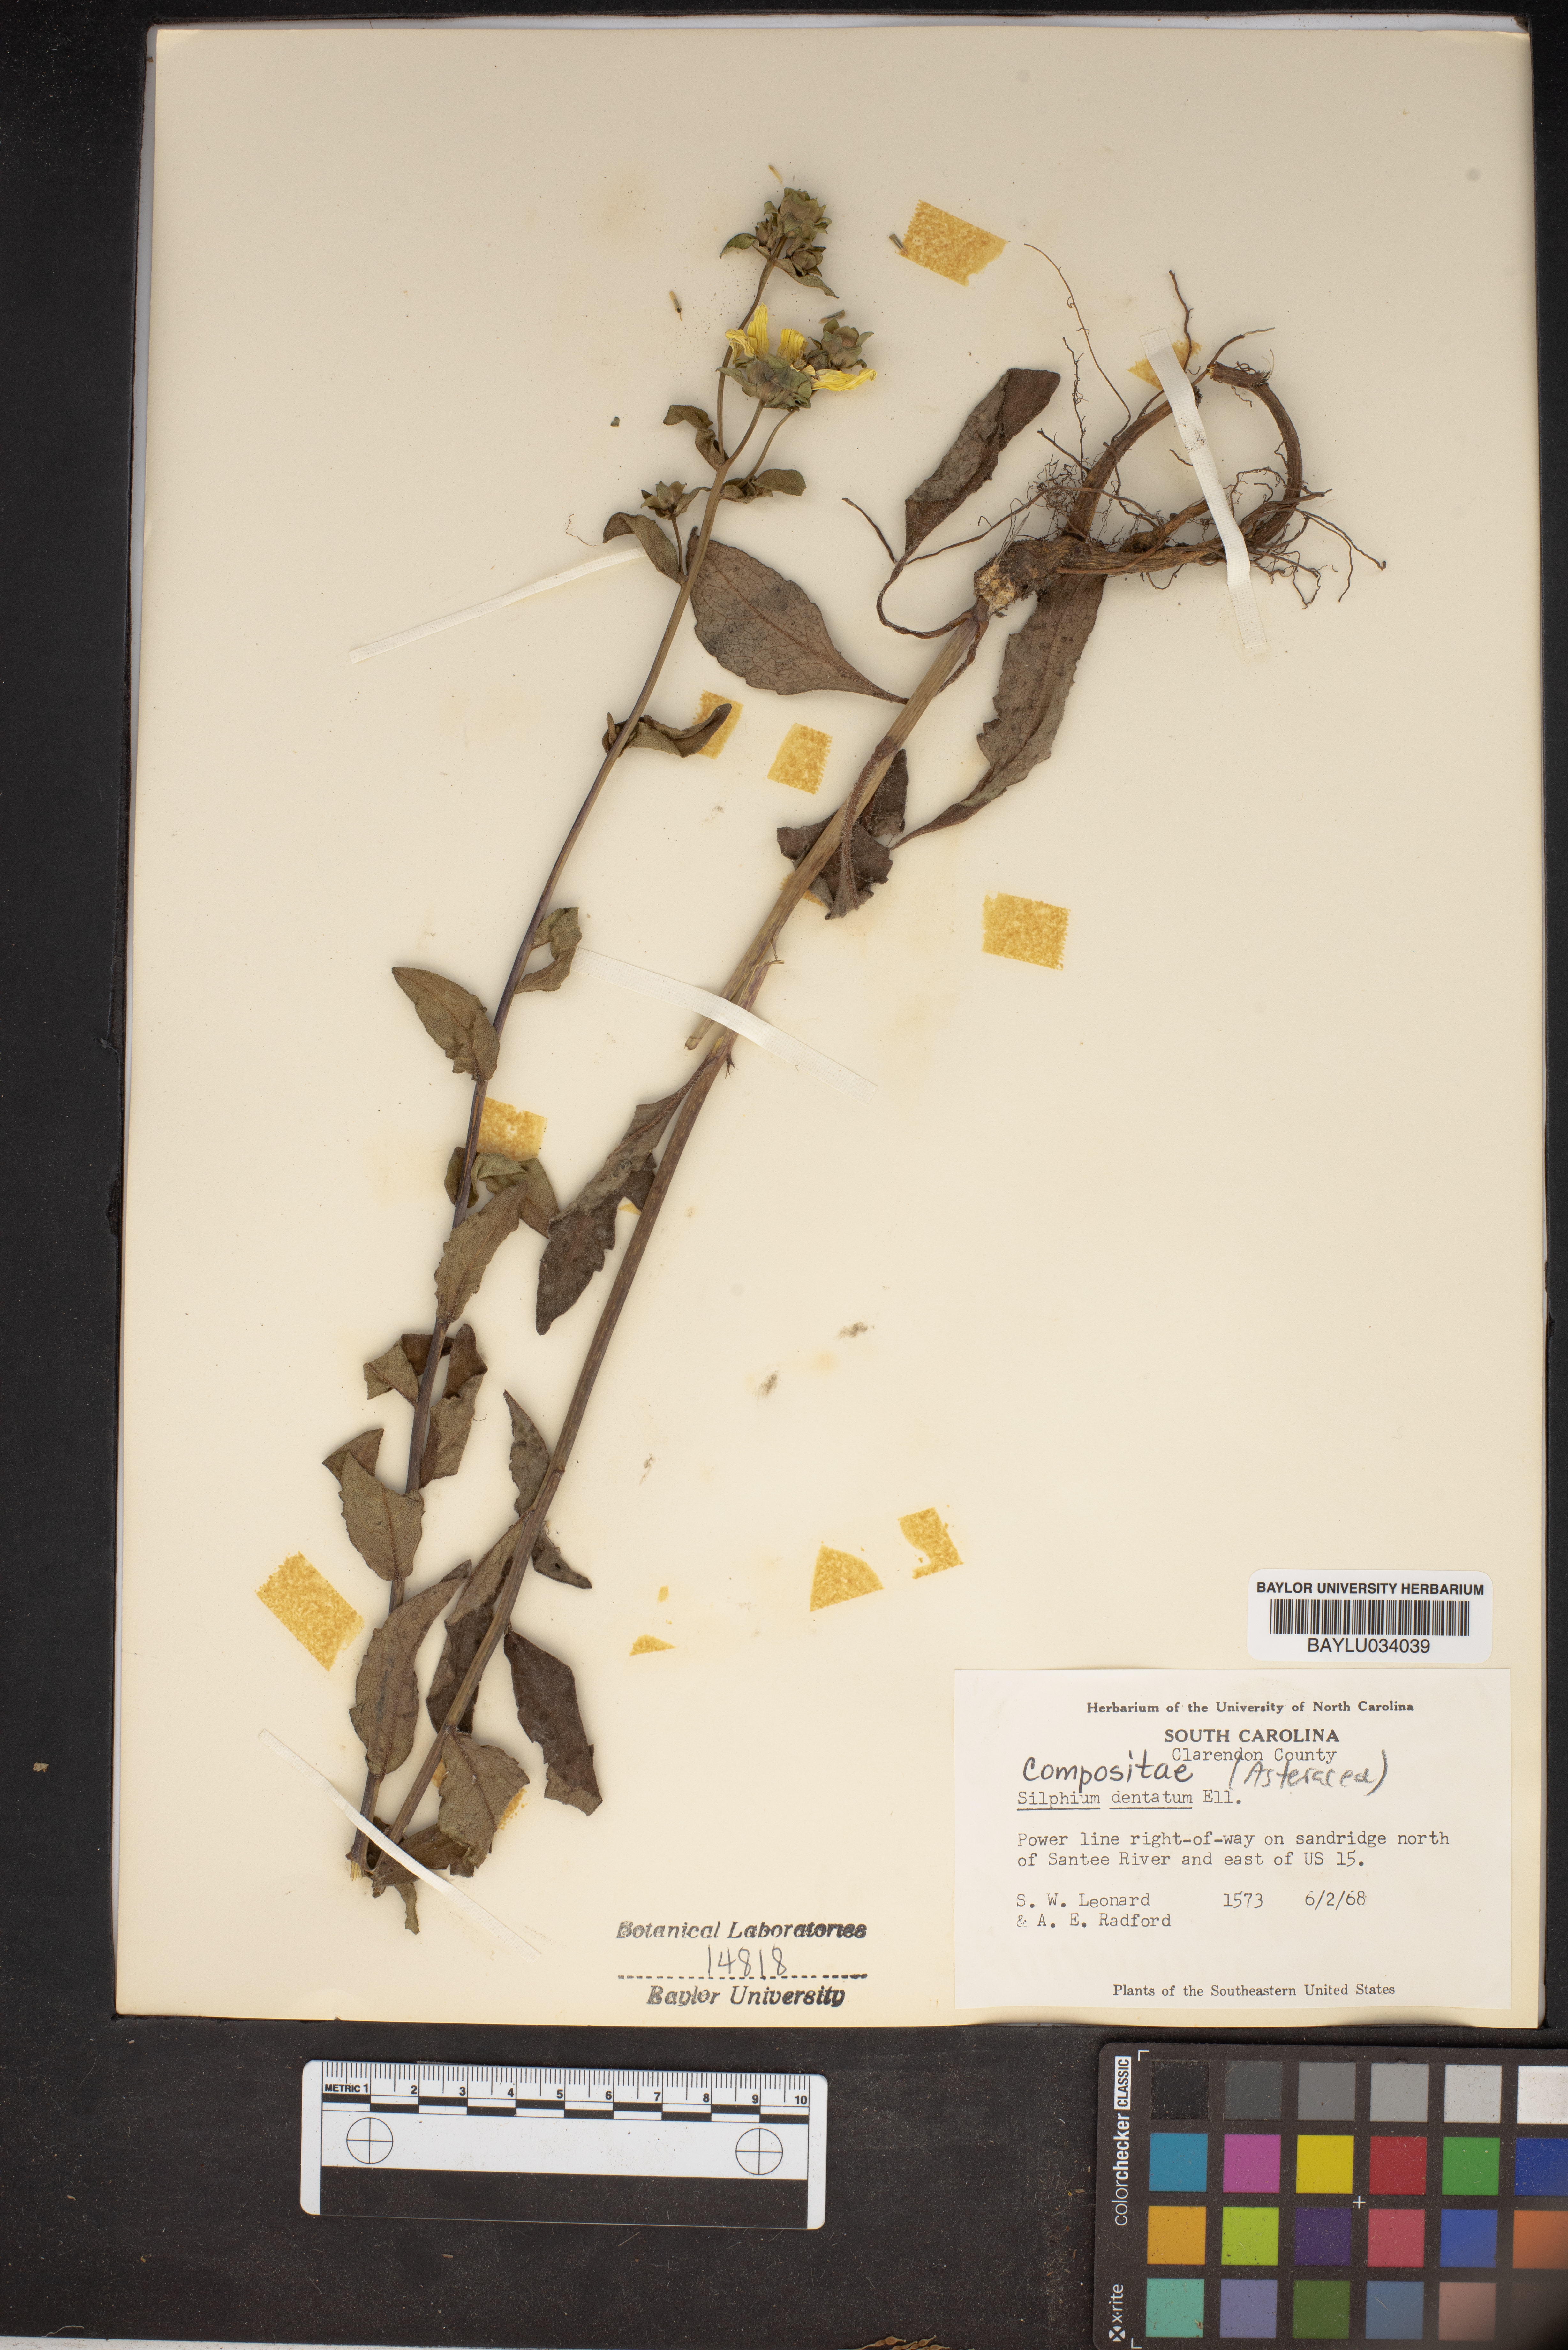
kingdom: Plantae
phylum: Tracheophyta
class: Magnoliopsida
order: Asterales
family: Asteraceae
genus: Silphium
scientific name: Silphium asteriscus
